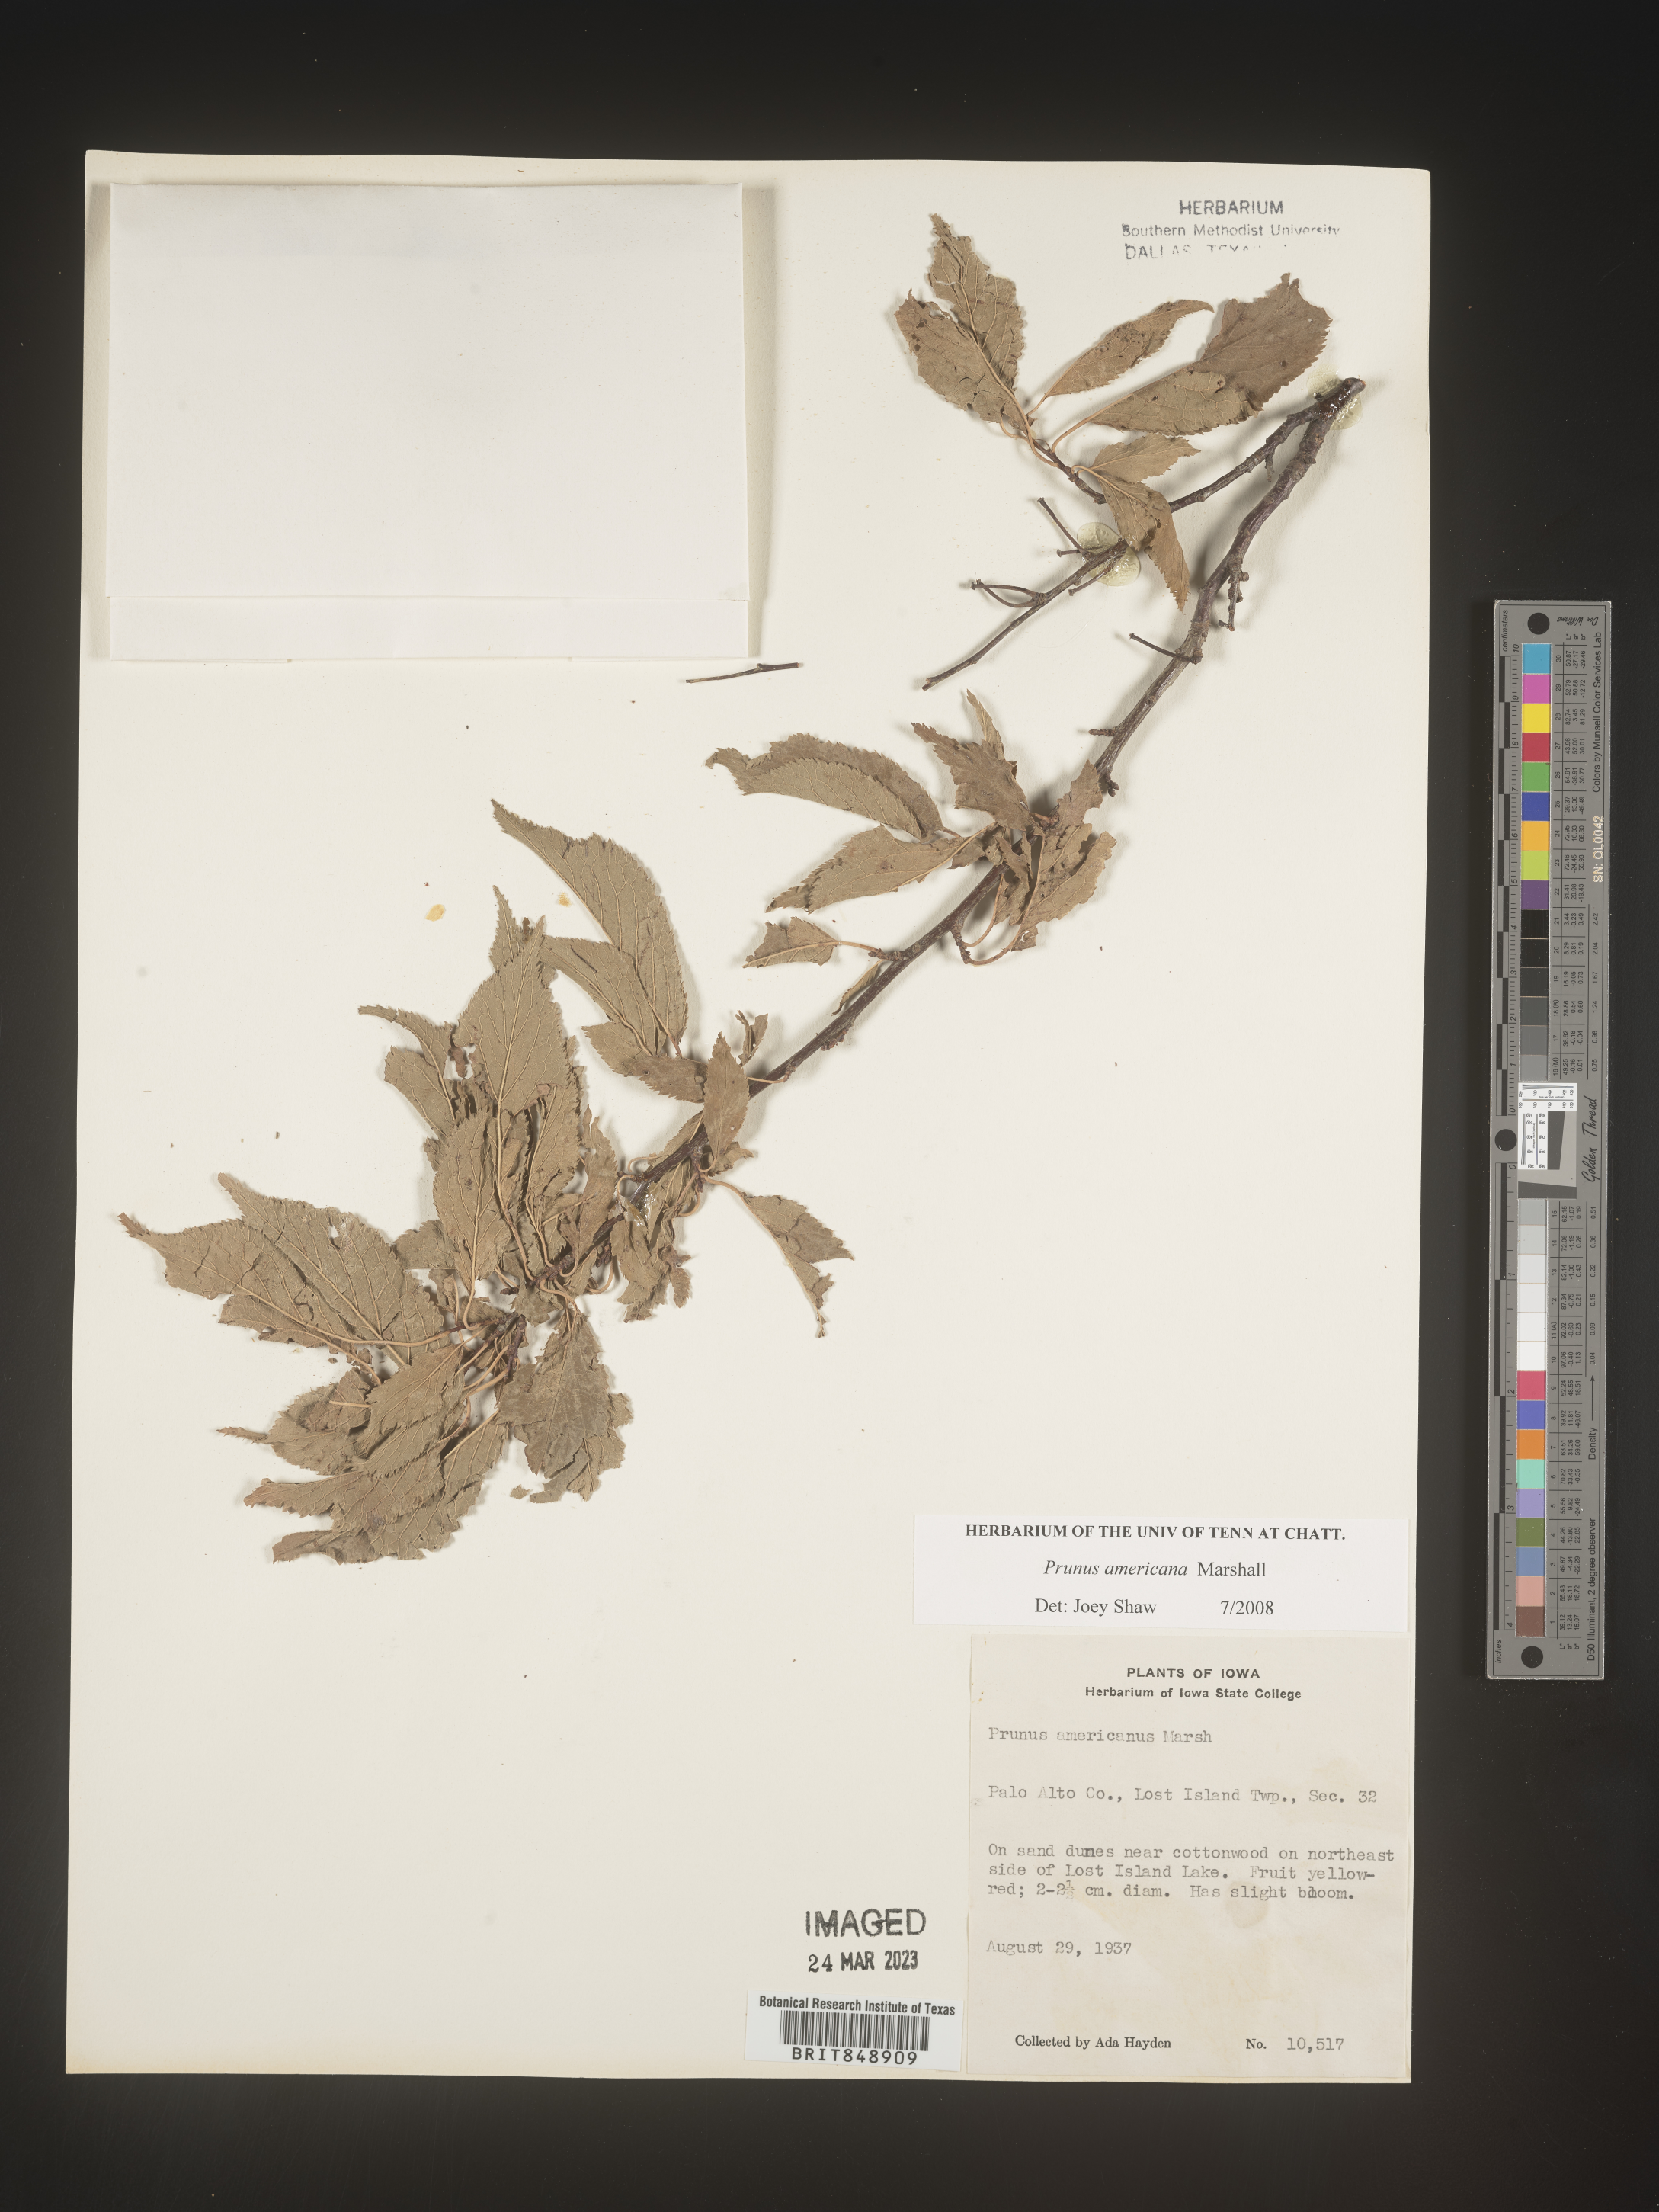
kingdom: Plantae
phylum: Tracheophyta
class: Magnoliopsida
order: Rosales
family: Rosaceae
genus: Prunus
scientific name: Prunus americana
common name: American plum
